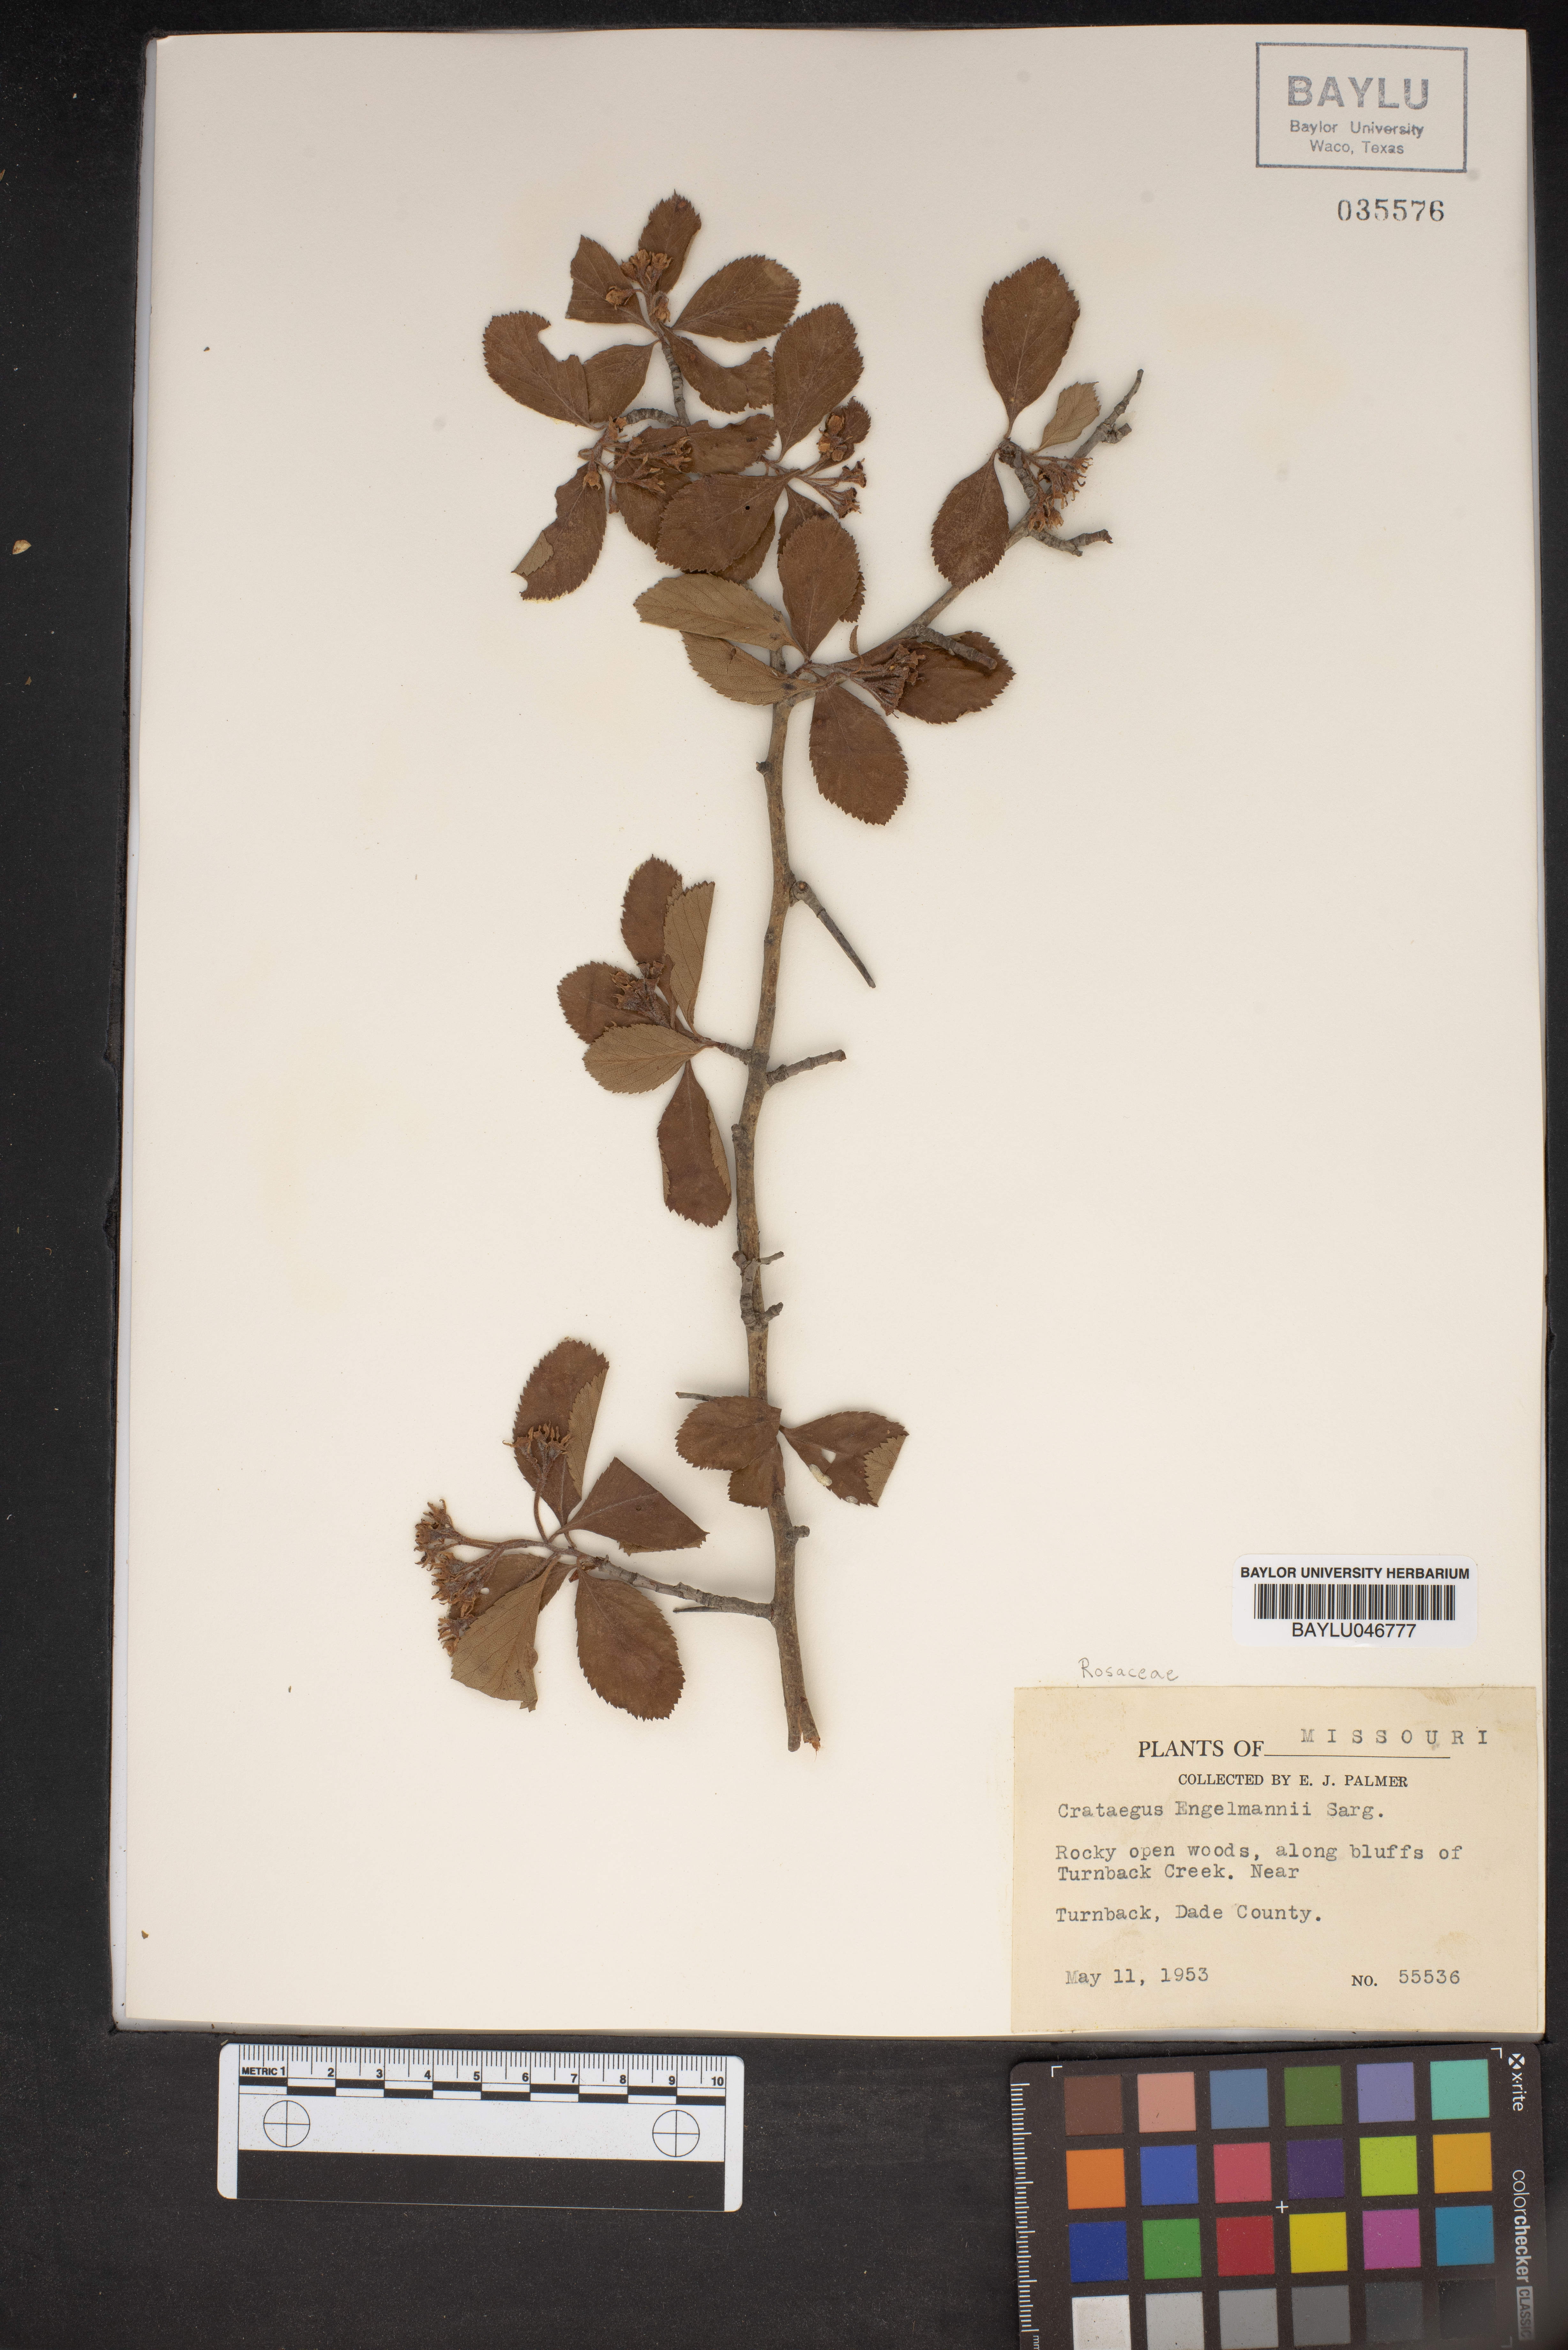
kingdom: Plantae
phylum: Tracheophyta
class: Magnoliopsida
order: Rosales
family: Rosaceae
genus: Crataegus
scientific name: Crataegus berberifolia
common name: Barberry hawthorn
